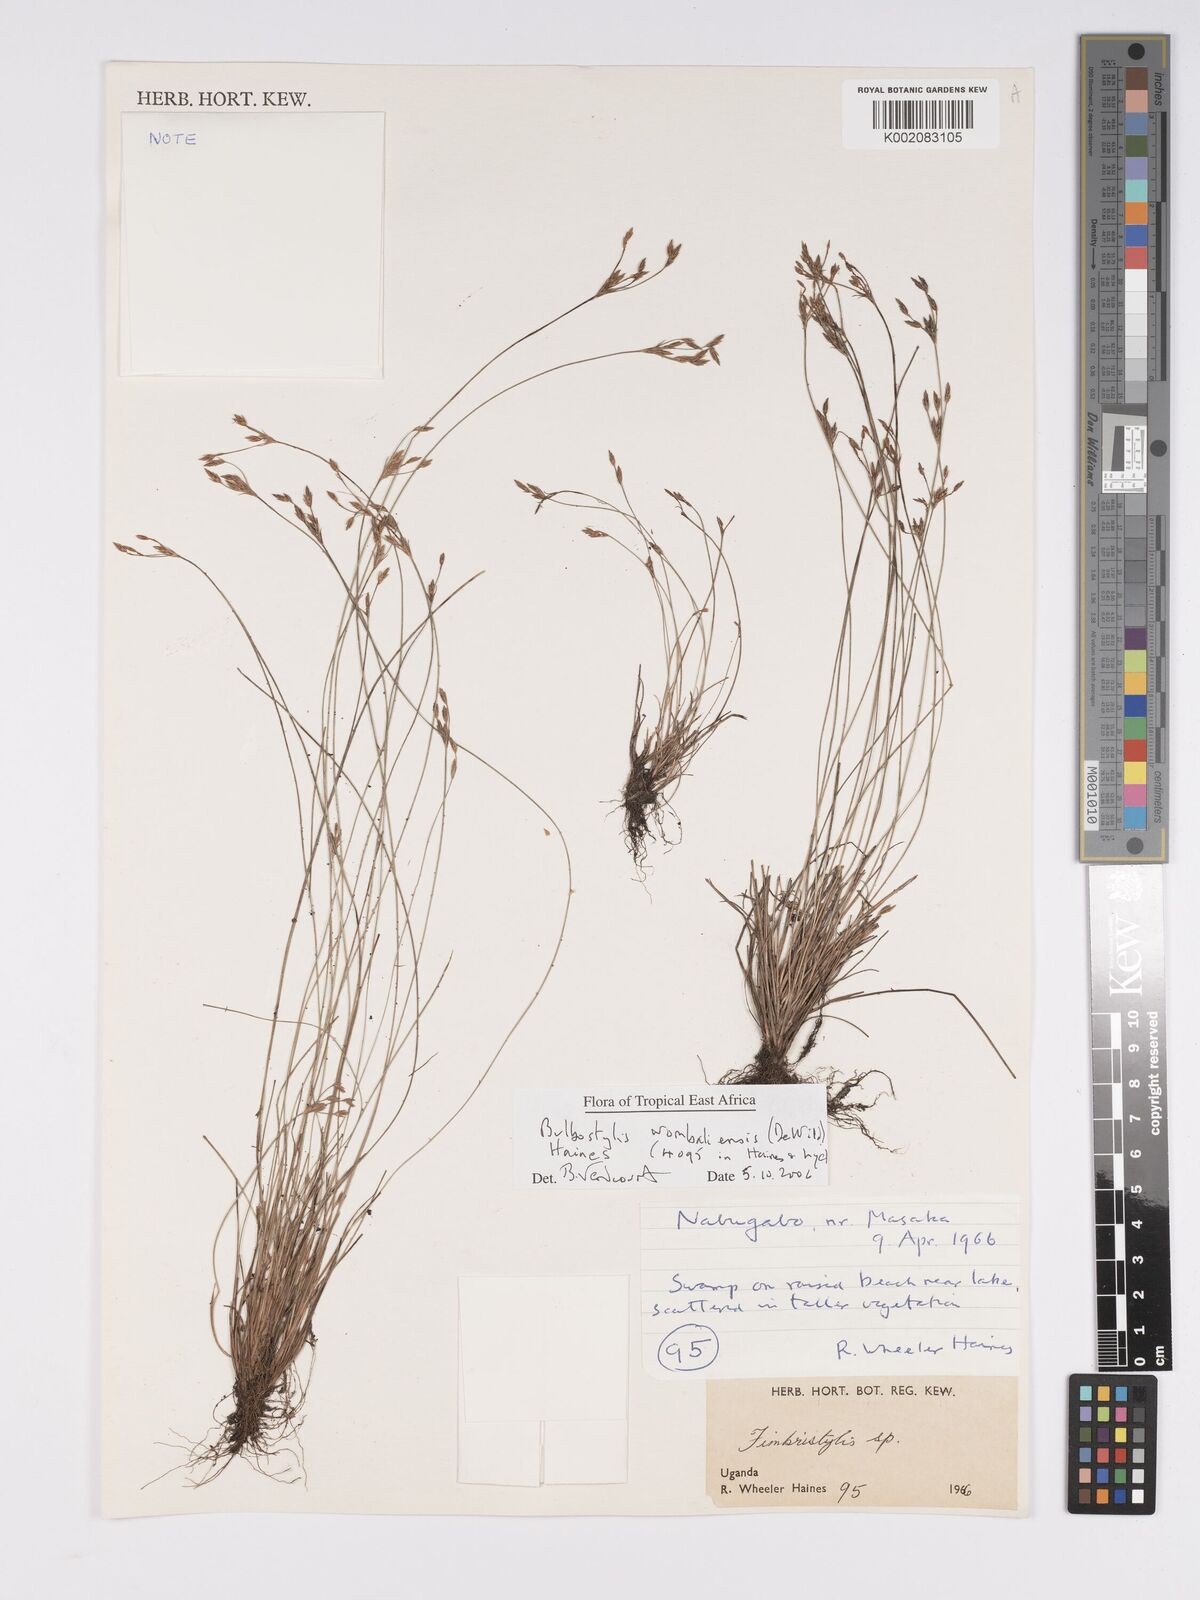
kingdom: Plantae
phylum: Tracheophyta
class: Liliopsida
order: Poales
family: Cyperaceae
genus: Bulbostylis
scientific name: Bulbostylis
